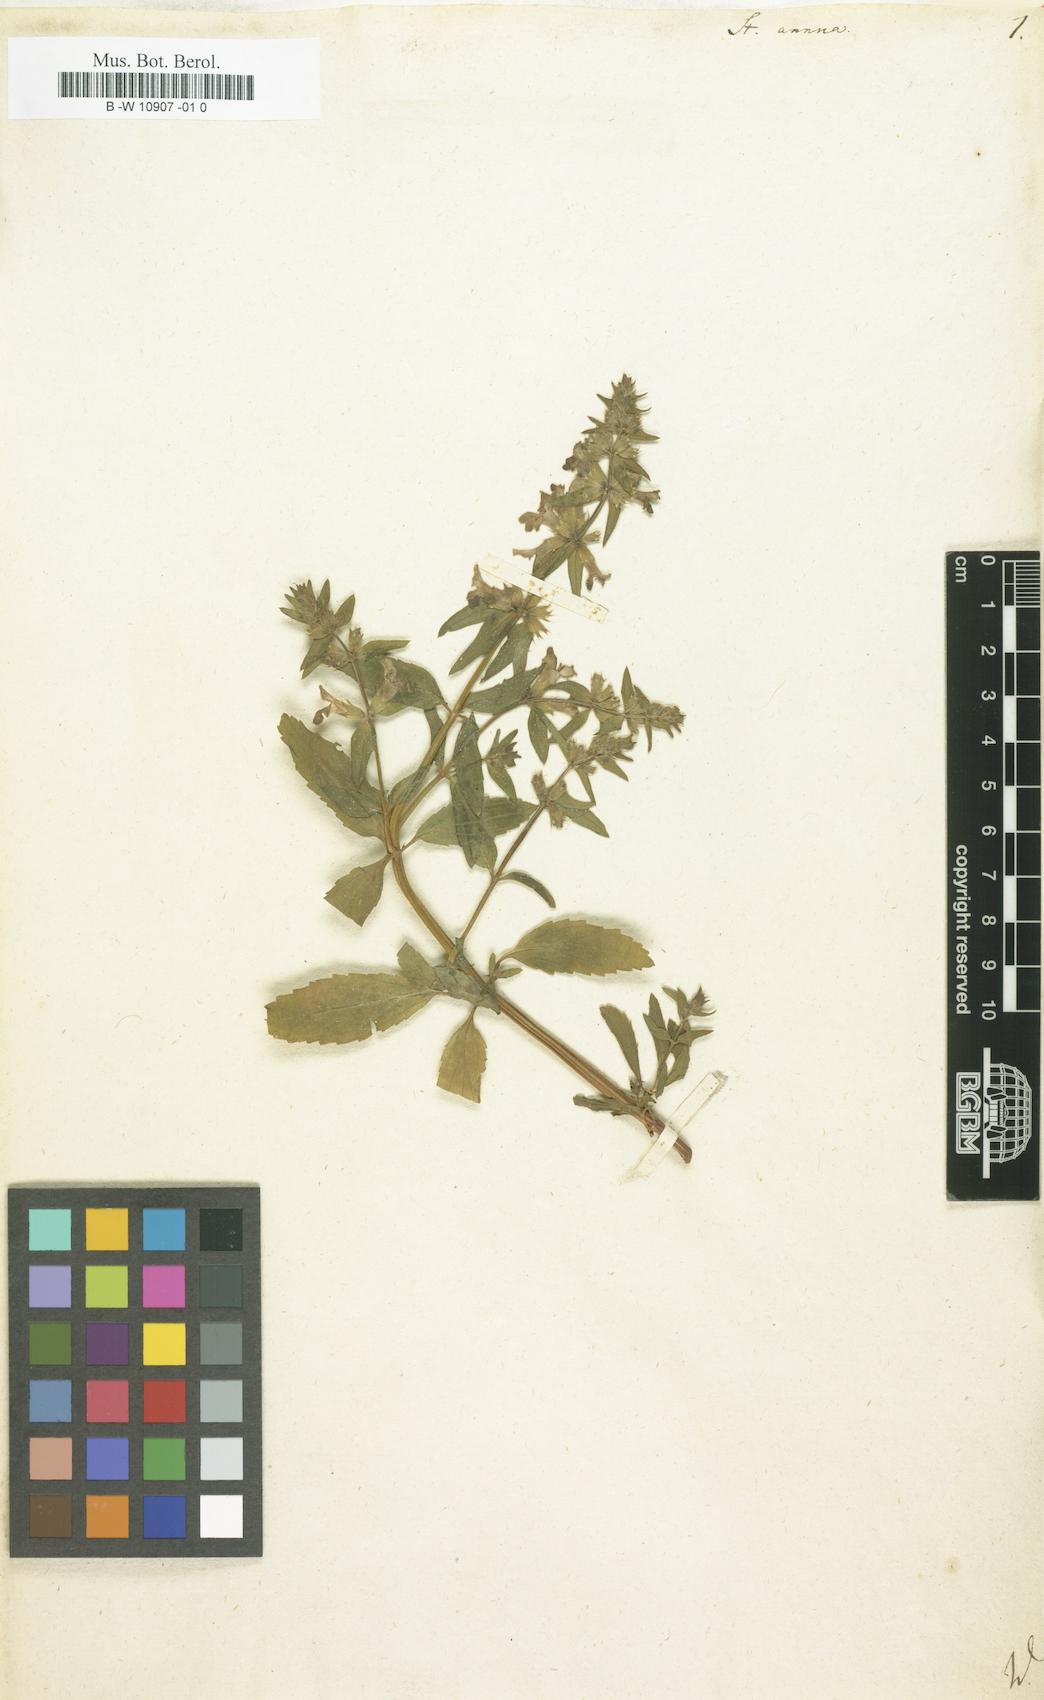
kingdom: Plantae
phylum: Tracheophyta
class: Magnoliopsida
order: Lamiales
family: Lamiaceae
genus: Stachys
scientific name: Stachys annua
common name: Annual yellow-woundwort
